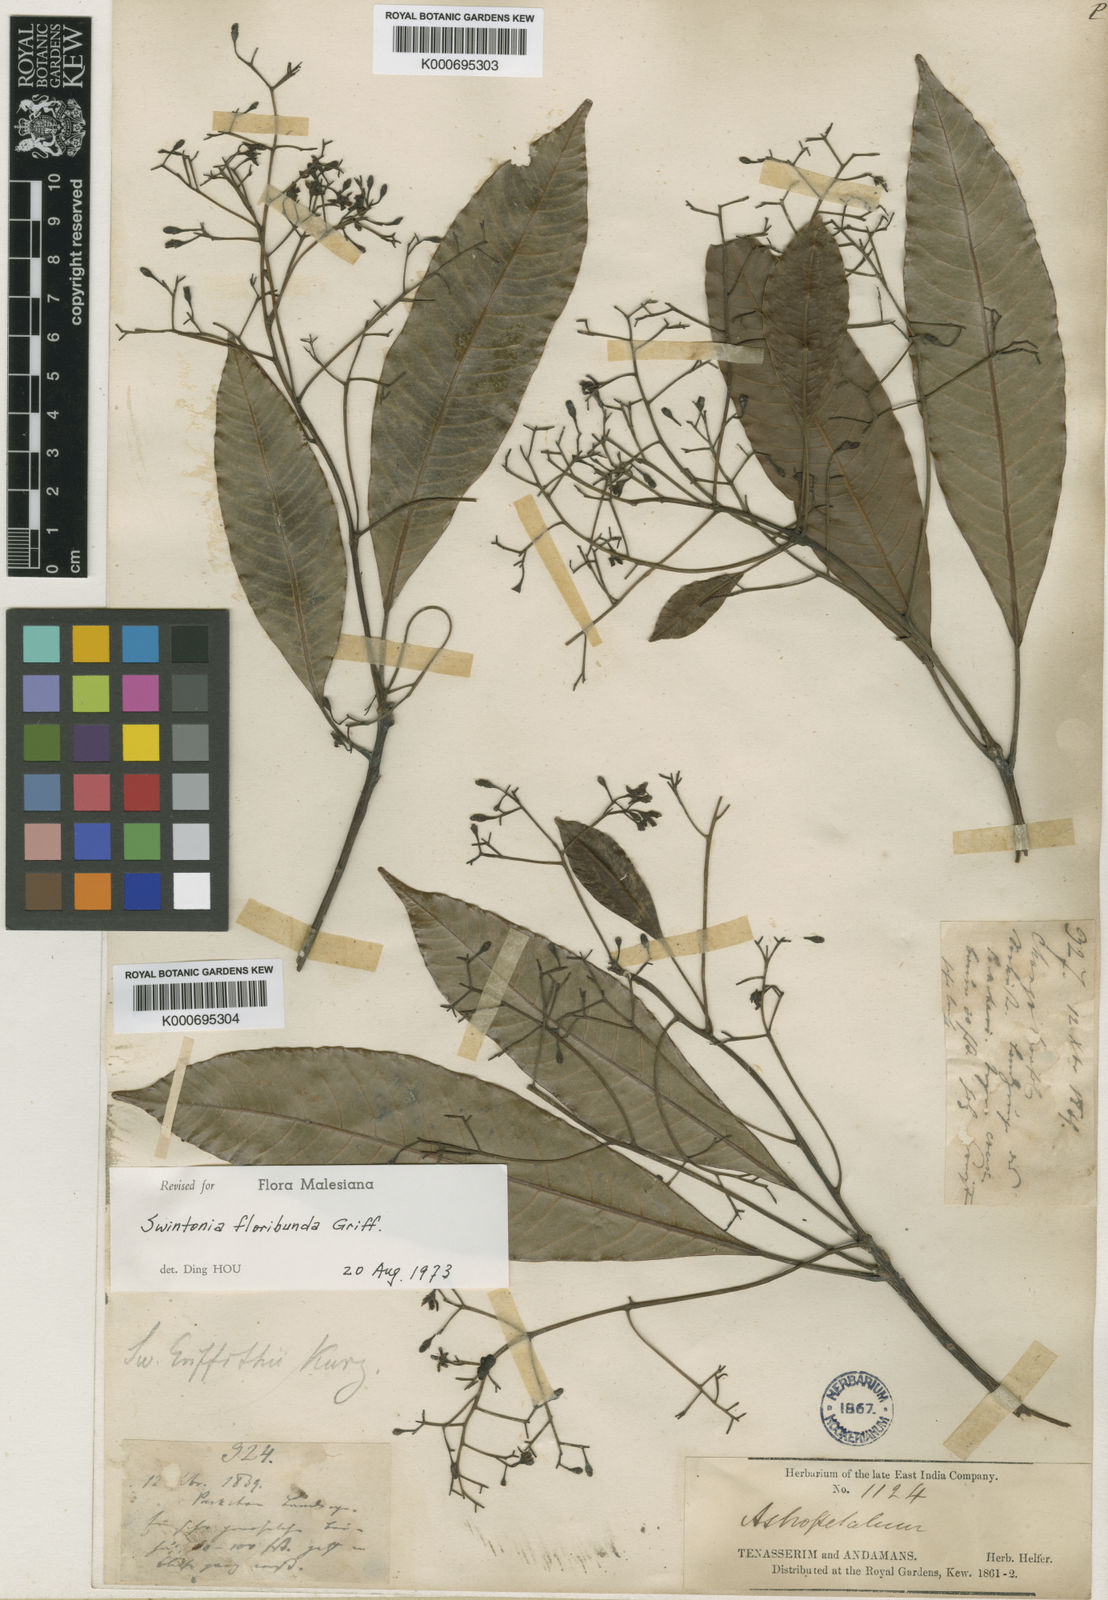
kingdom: Plantae
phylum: Tracheophyta
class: Magnoliopsida
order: Sapindales
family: Anacardiaceae
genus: Swintonia
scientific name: Swintonia floribunda
